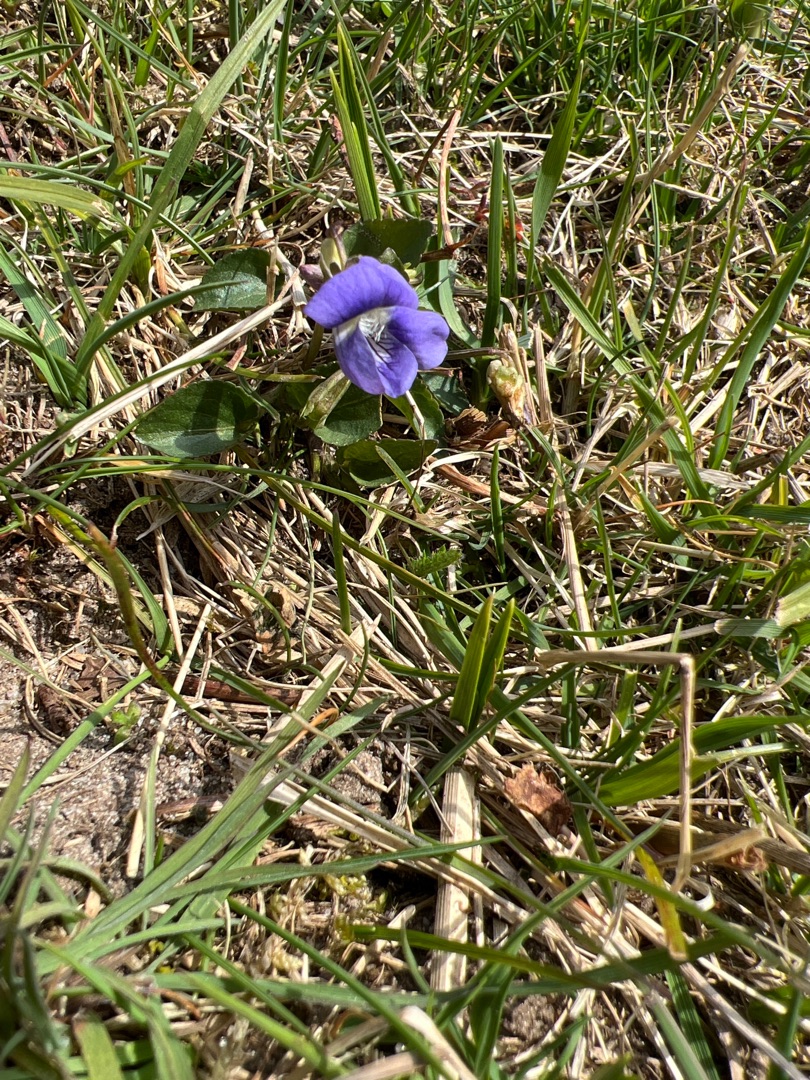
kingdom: Plantae
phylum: Tracheophyta
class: Magnoliopsida
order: Malpighiales
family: Violaceae
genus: Viola
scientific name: Viola canina
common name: Hunde-viol
